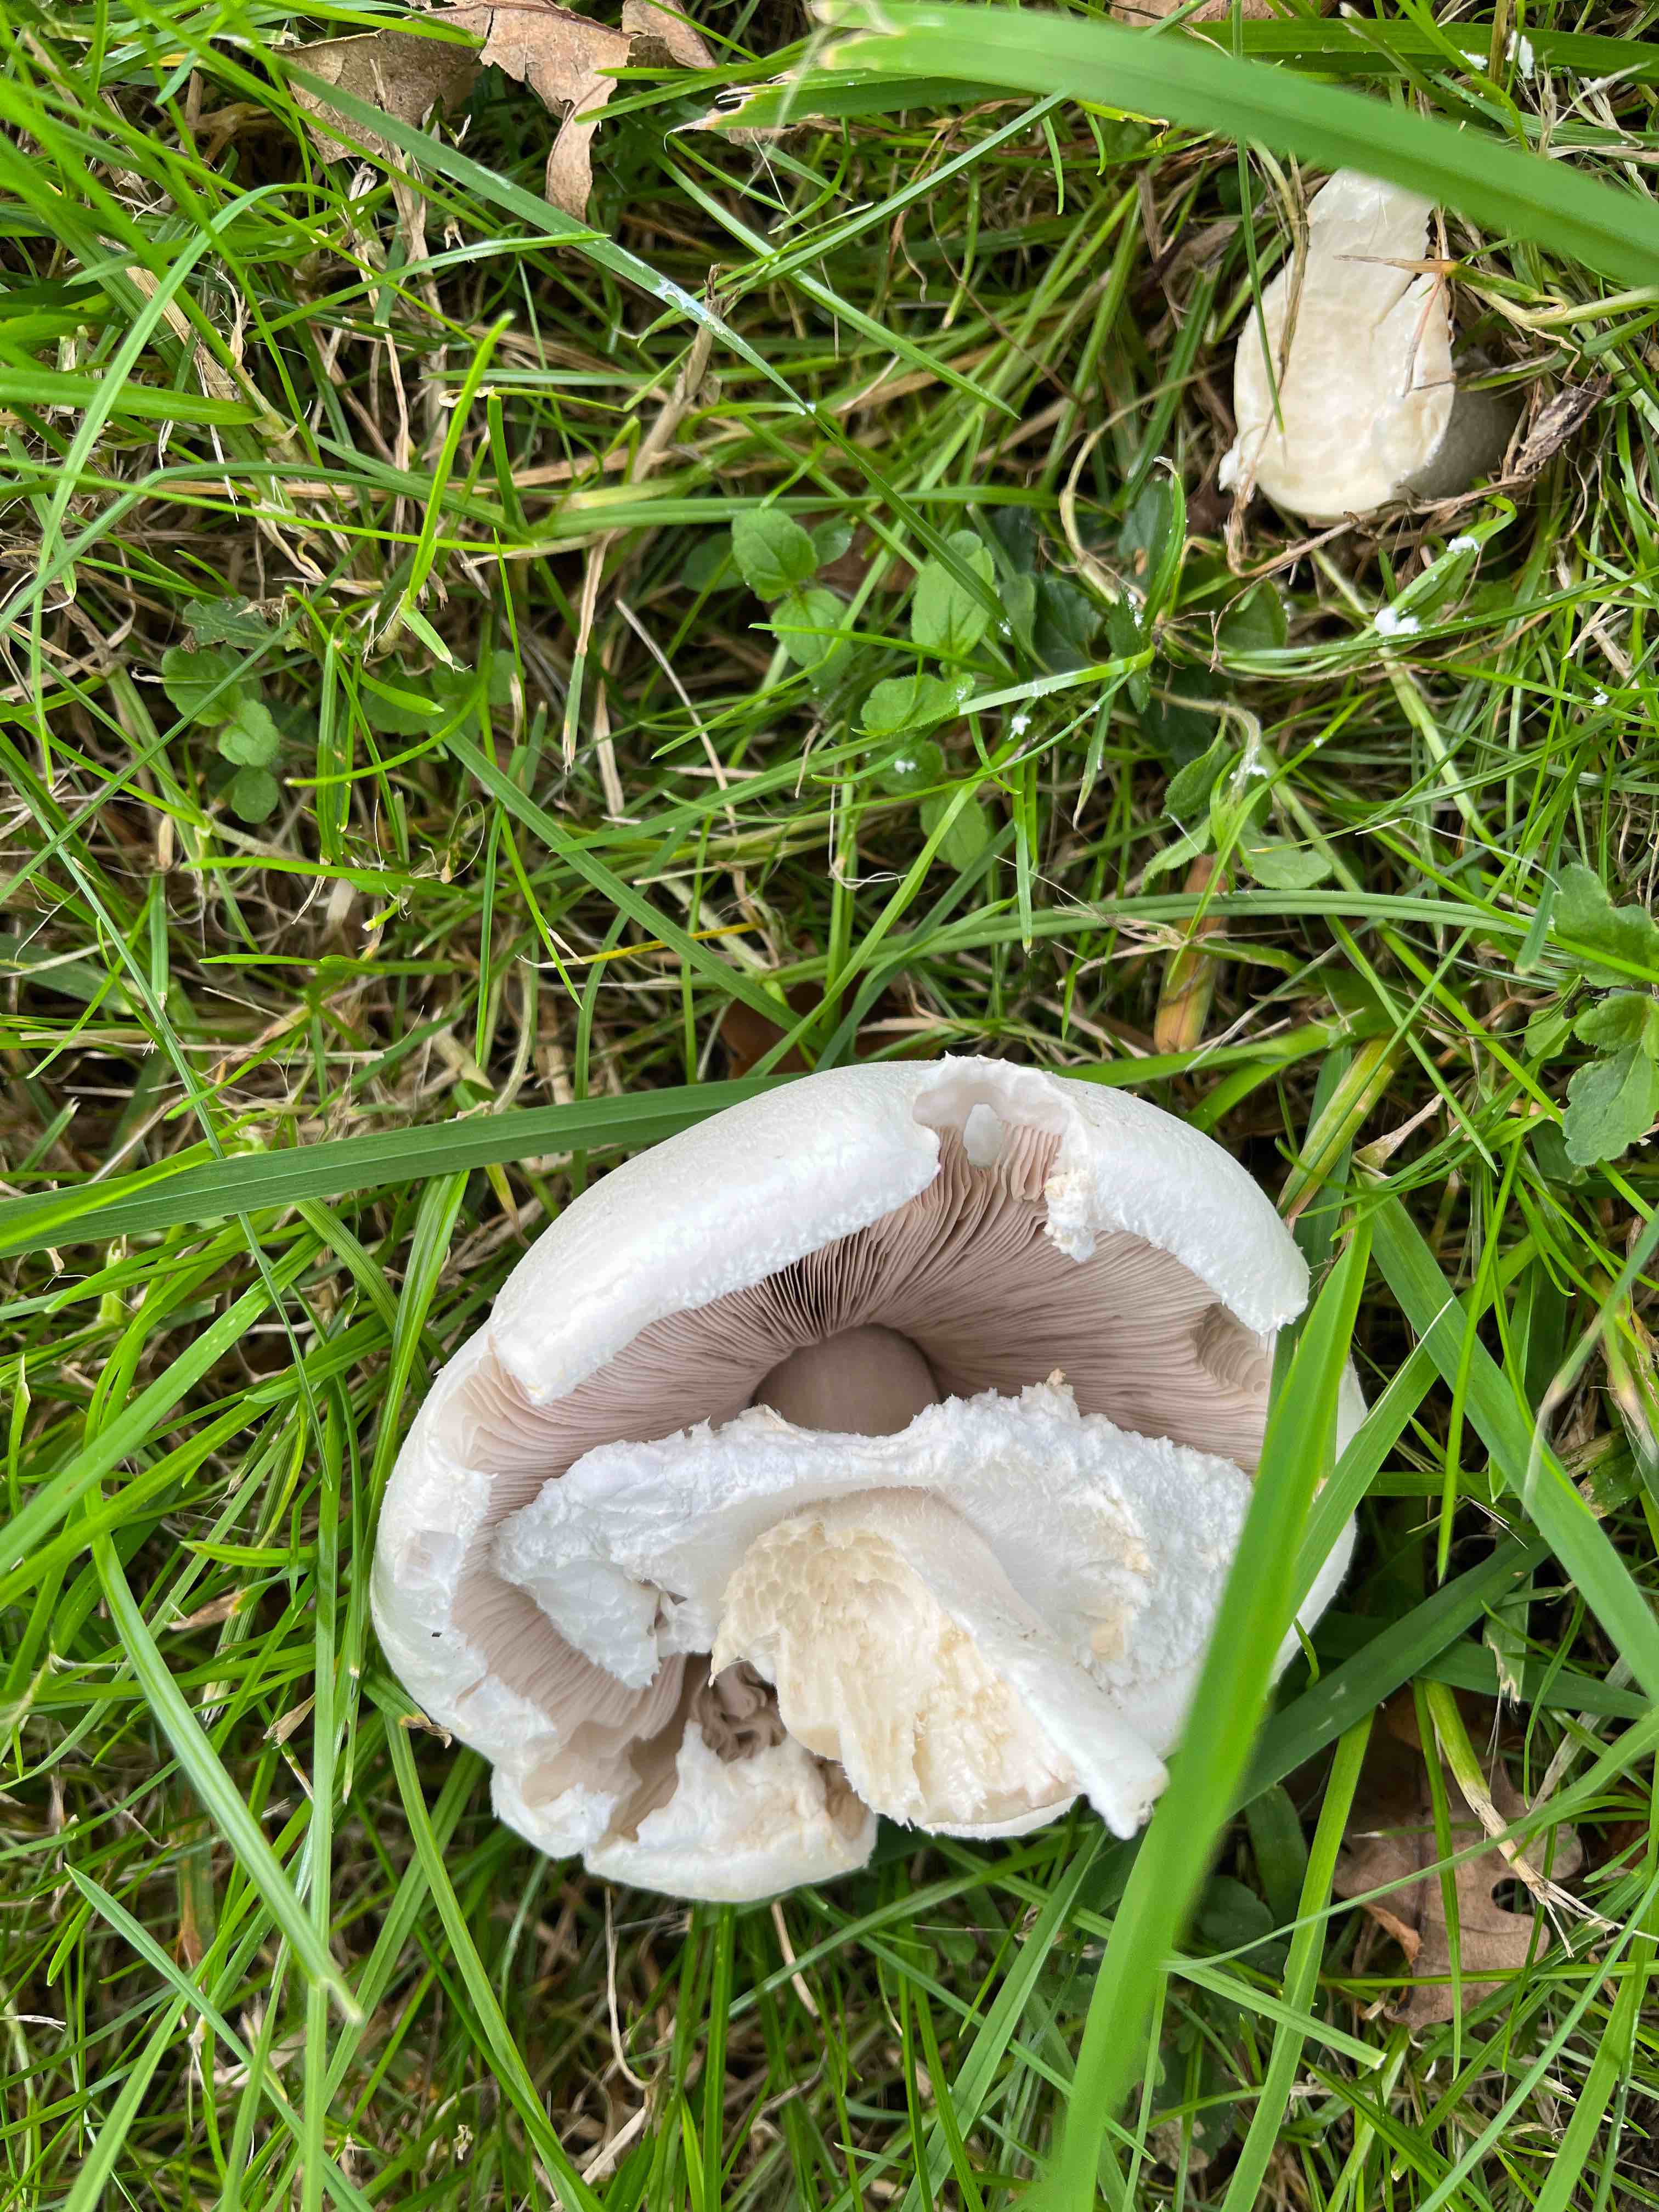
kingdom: Fungi
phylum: Basidiomycota
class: Agaricomycetes
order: Agaricales
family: Agaricaceae
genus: Agaricus
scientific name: Agaricus
